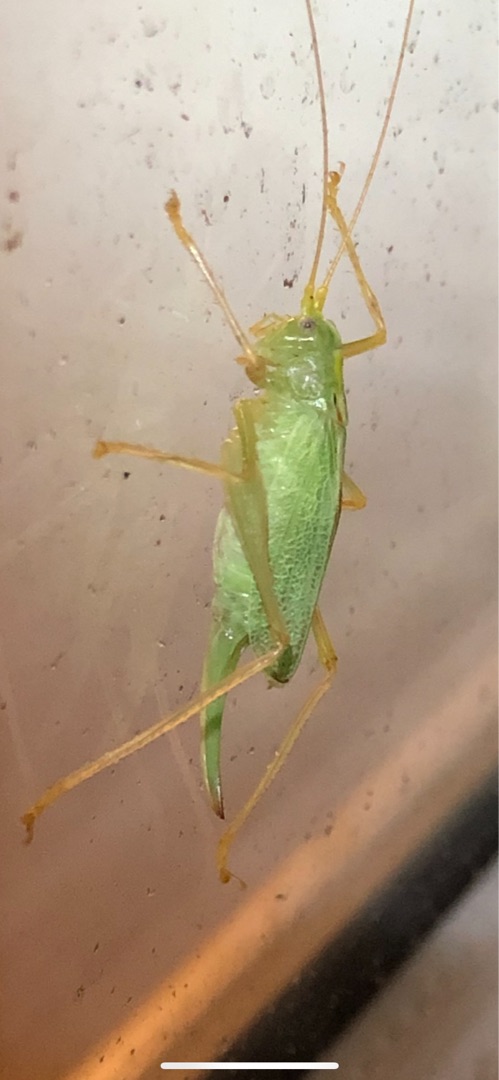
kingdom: Animalia
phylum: Arthropoda
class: Insecta
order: Orthoptera
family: Tettigoniidae
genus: Meconema
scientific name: Meconema thalassinum
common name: Egegræshoppe
